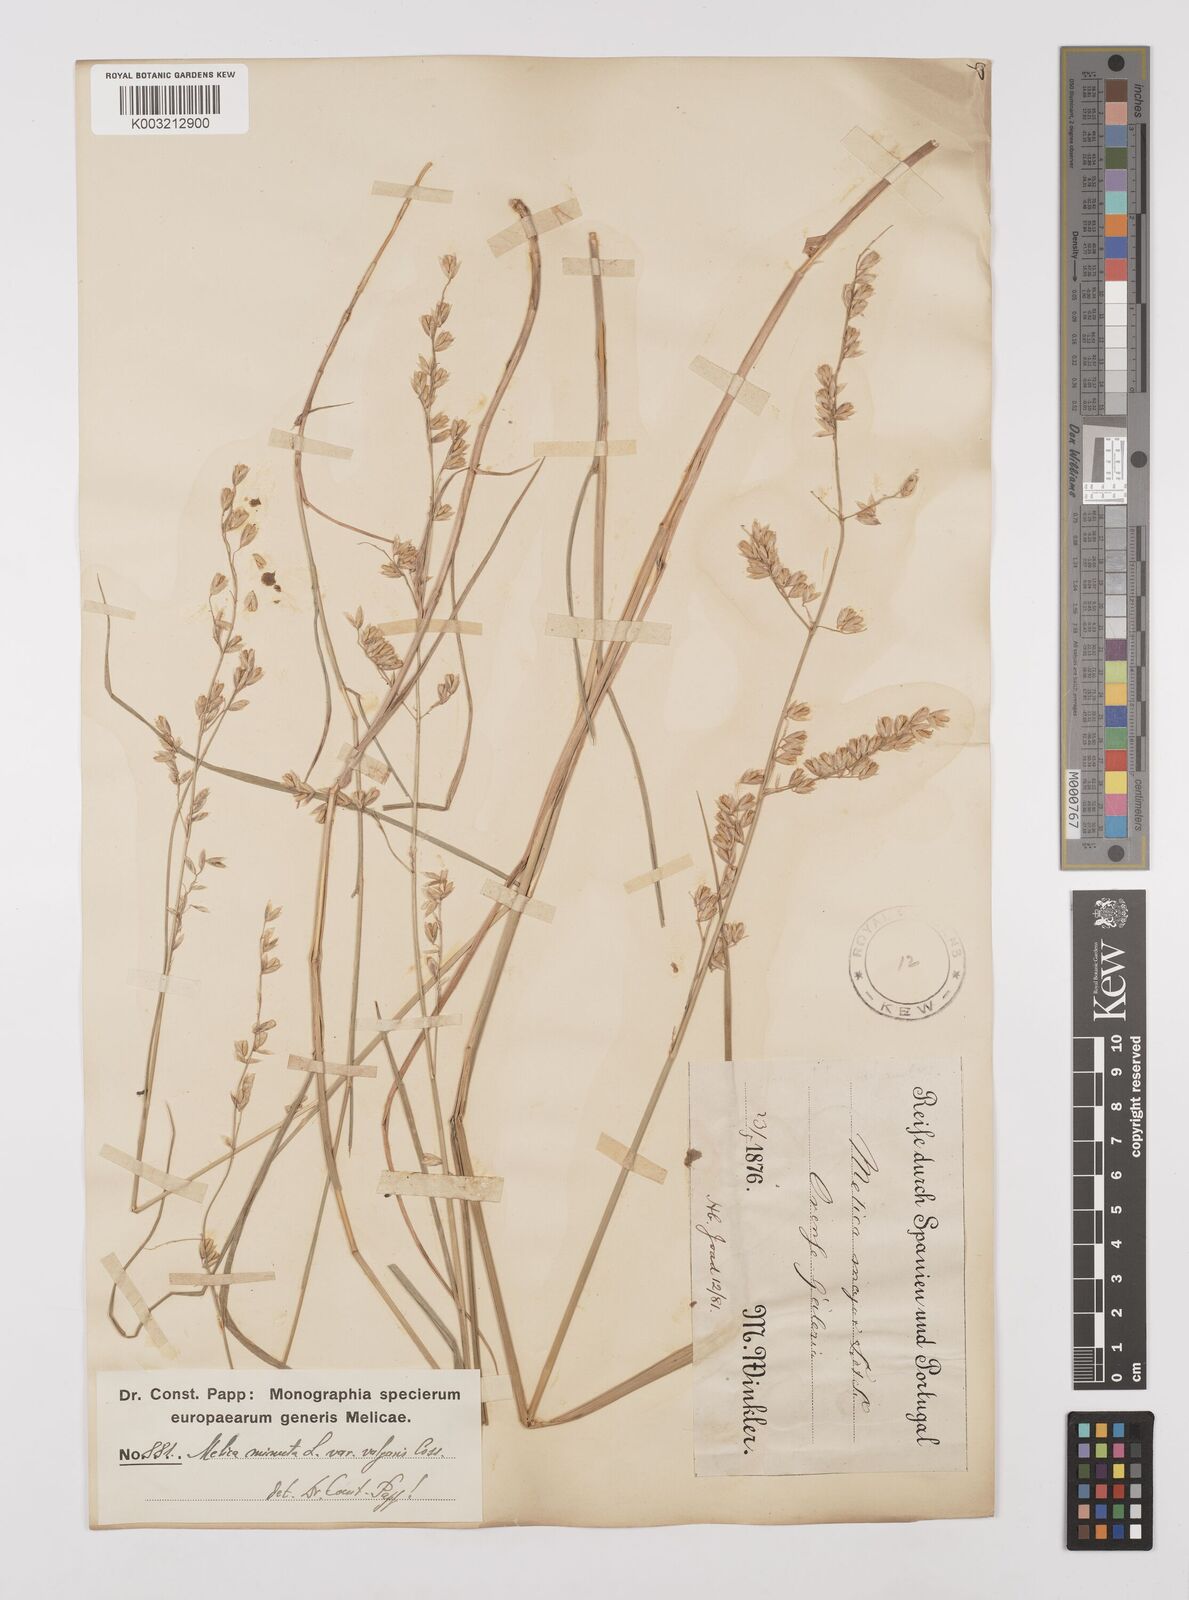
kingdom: Plantae
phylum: Tracheophyta
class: Liliopsida
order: Poales
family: Poaceae
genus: Melica
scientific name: Melica minuta
